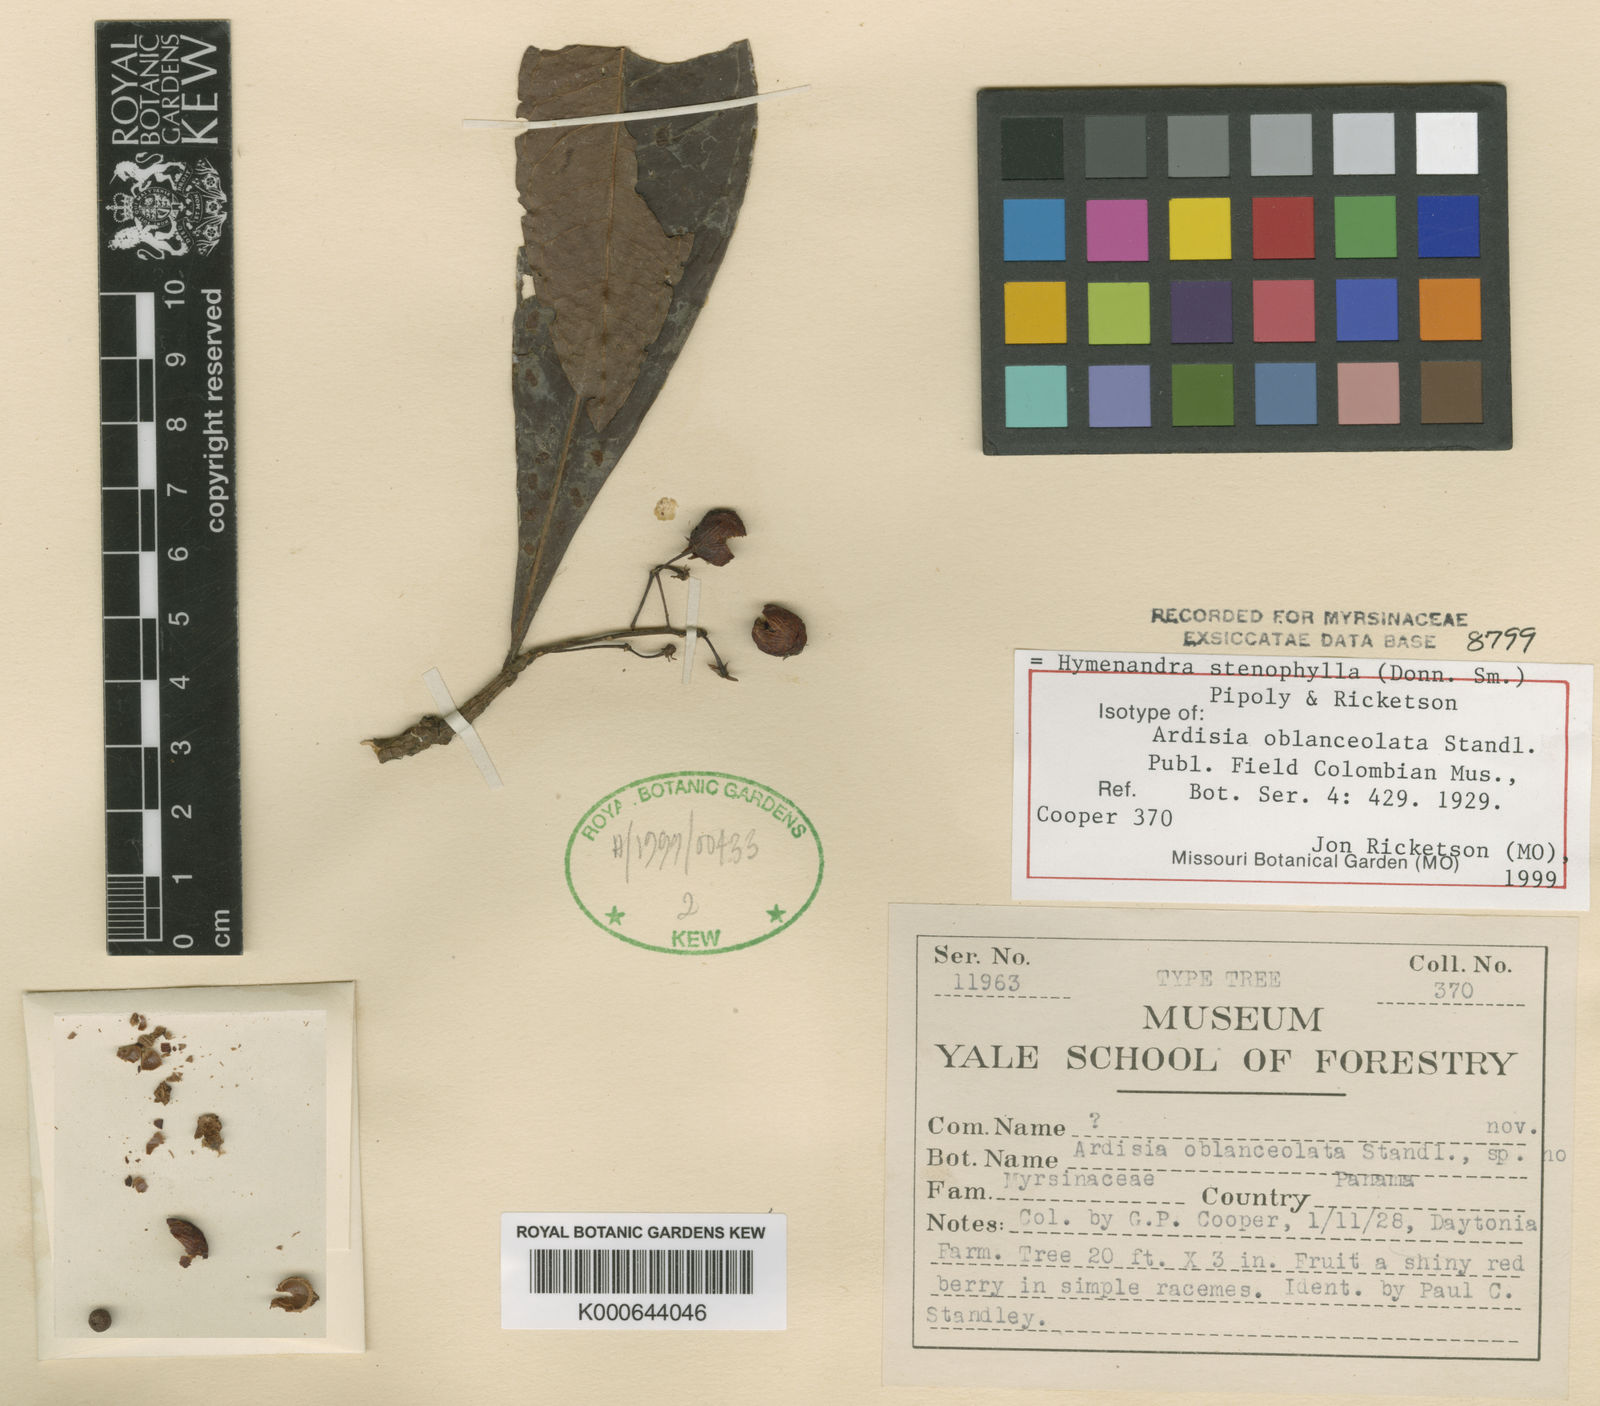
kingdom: Plantae
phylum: Tracheophyta
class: Magnoliopsida
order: Ericales
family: Primulaceae
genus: Hymenandra
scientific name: Hymenandra stenophylla
